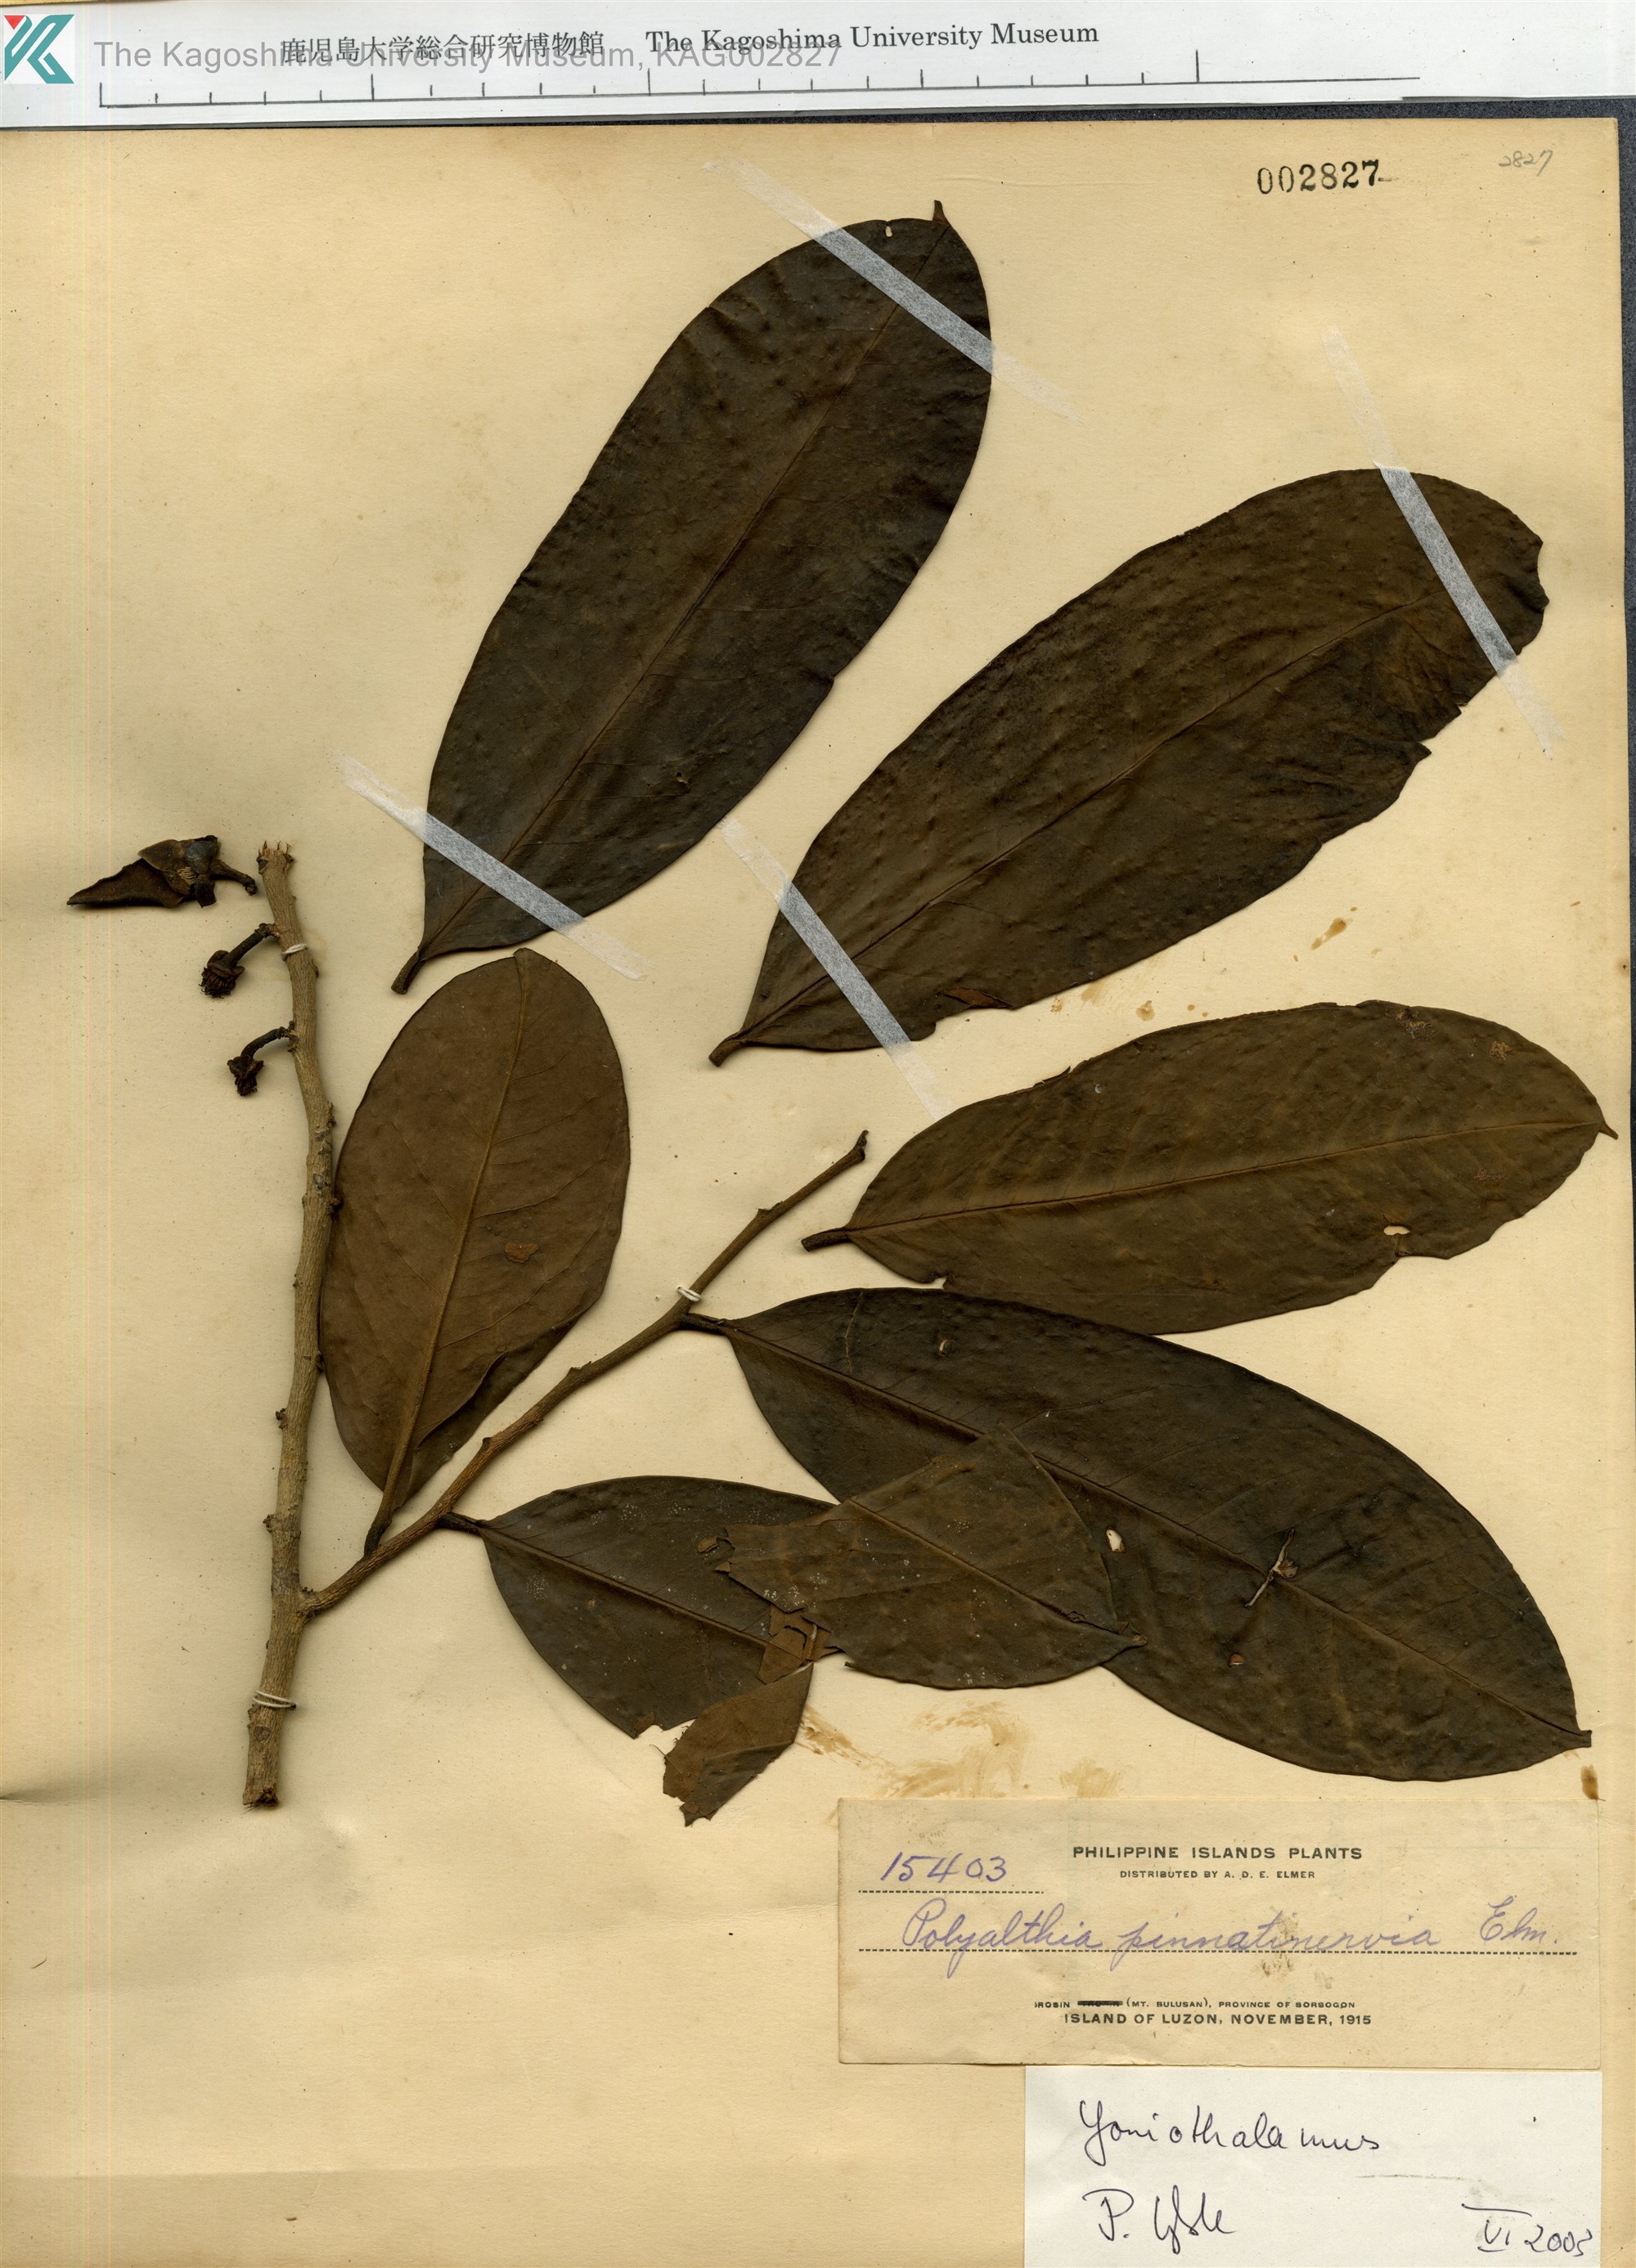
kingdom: Plantae
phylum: Tracheophyta
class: Magnoliopsida
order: Magnoliales
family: Annonaceae
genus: Goniothalamus
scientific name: Goniothalamus
